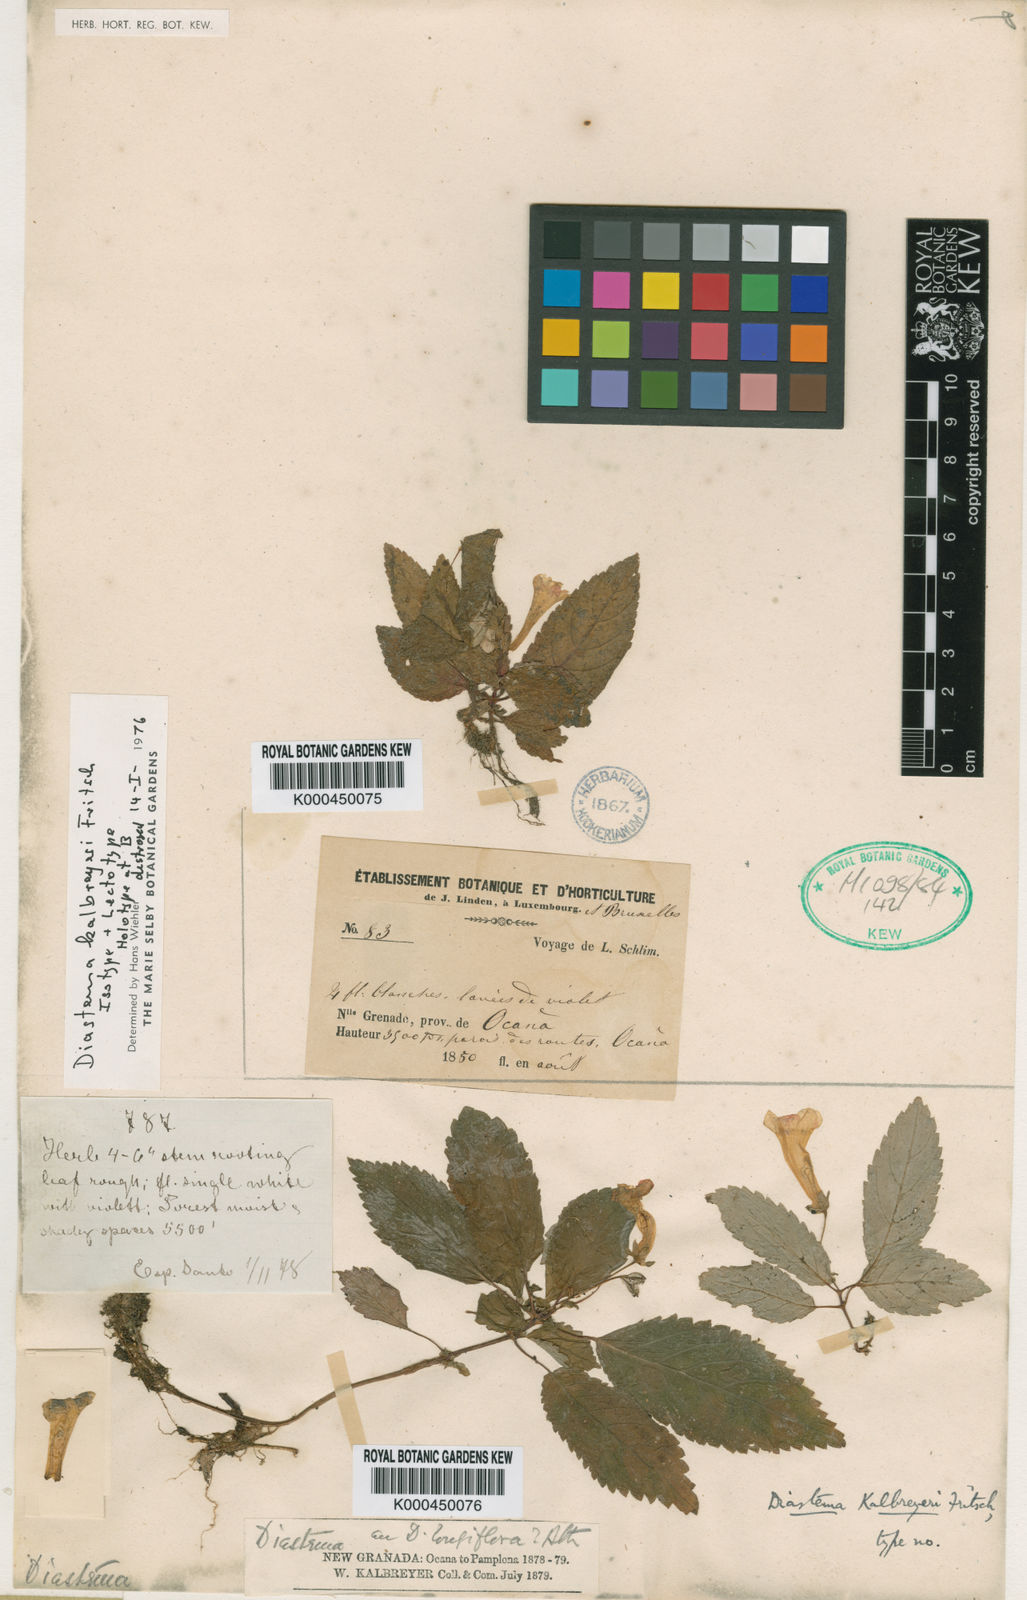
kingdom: Plantae
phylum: Tracheophyta
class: Magnoliopsida
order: Lamiales
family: Gesneriaceae
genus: Diastema
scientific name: Diastema kalbreyeri
